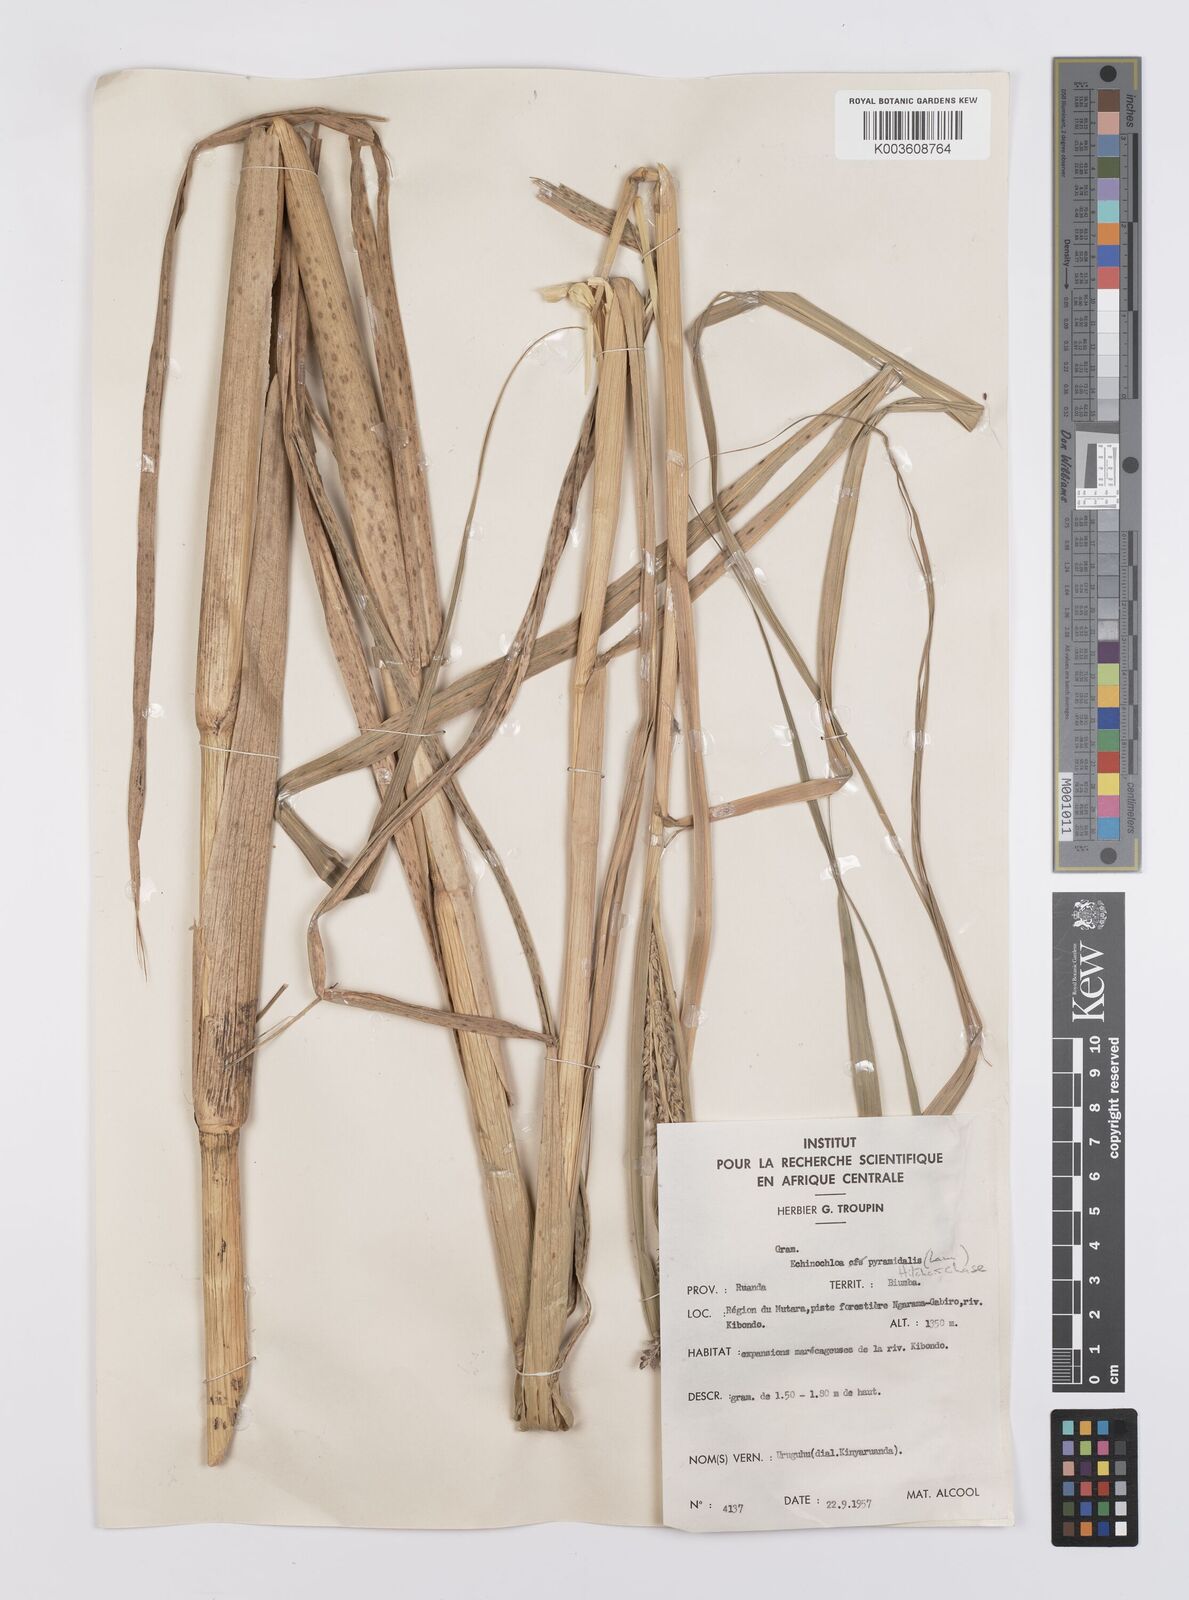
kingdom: Plantae
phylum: Tracheophyta
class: Liliopsida
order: Poales
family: Poaceae
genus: Echinochloa
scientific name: Echinochloa pyramidalis
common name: Antelope grass
